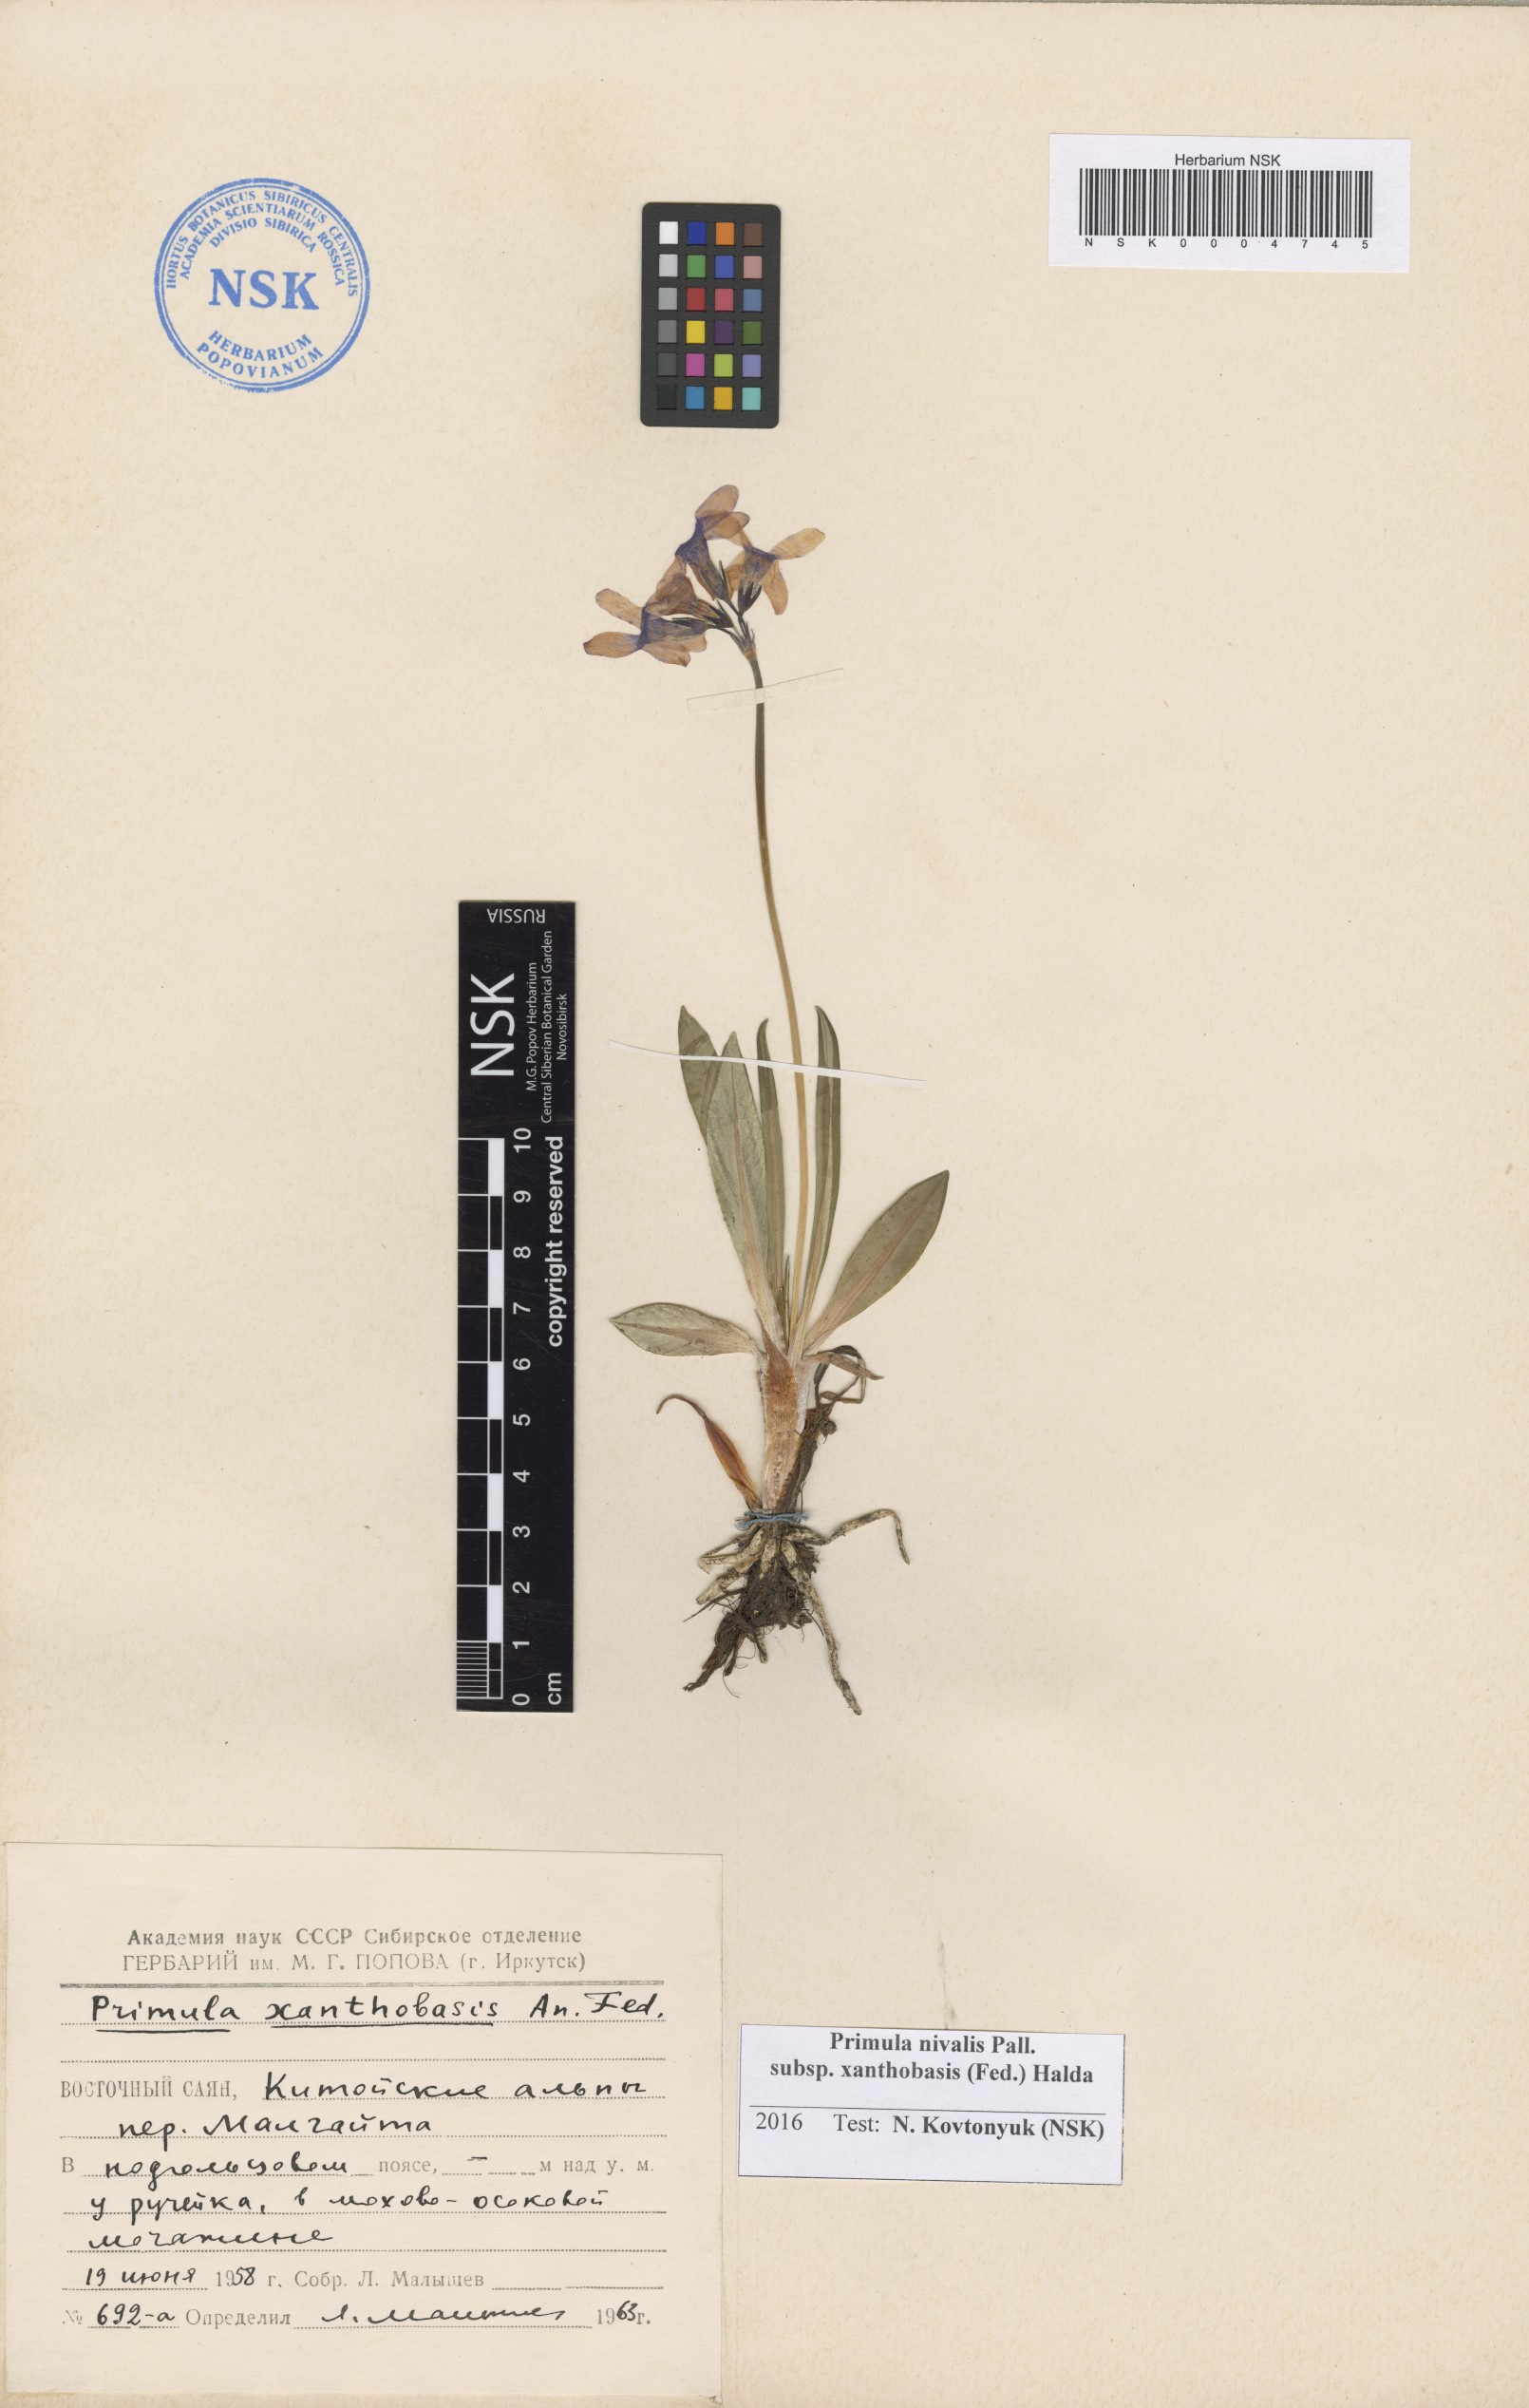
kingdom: Plantae
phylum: Tracheophyta
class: Magnoliopsida
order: Ericales
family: Primulaceae
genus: Primula
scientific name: Primula nivalis
